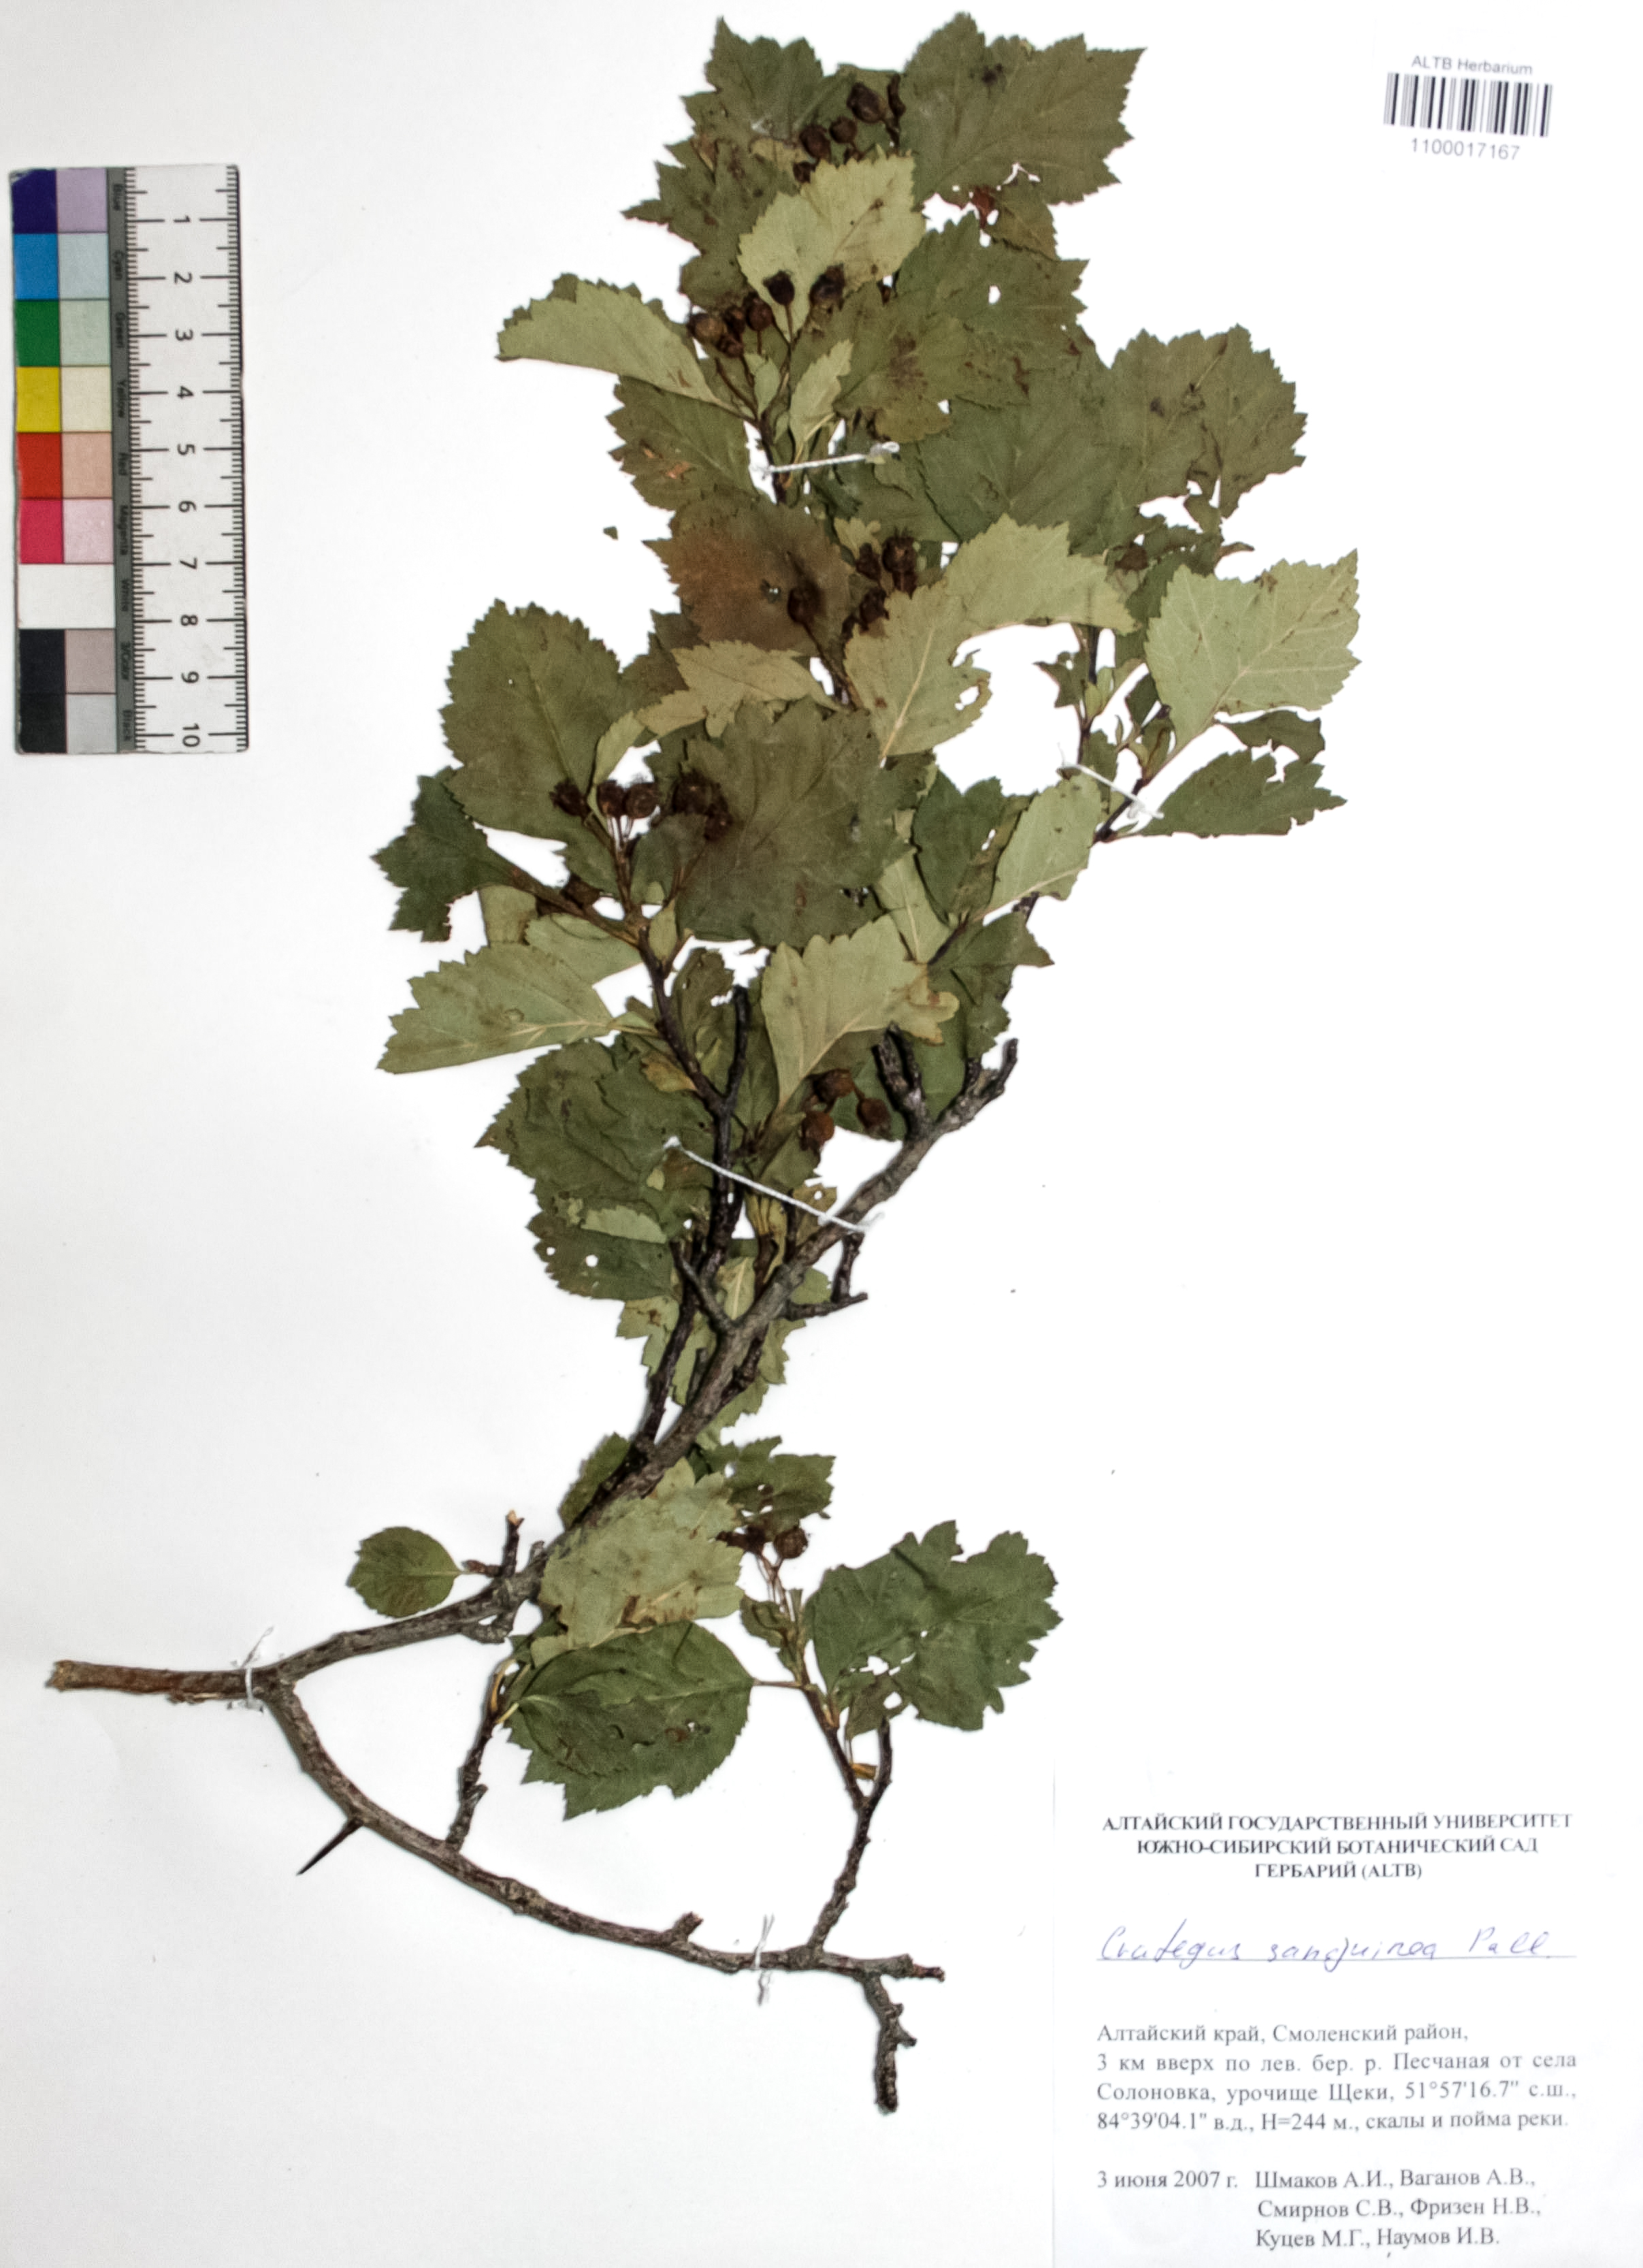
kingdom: Plantae
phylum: Tracheophyta
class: Magnoliopsida
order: Rosales
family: Rosaceae
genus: Crataegus
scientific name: Crataegus sanguinea
